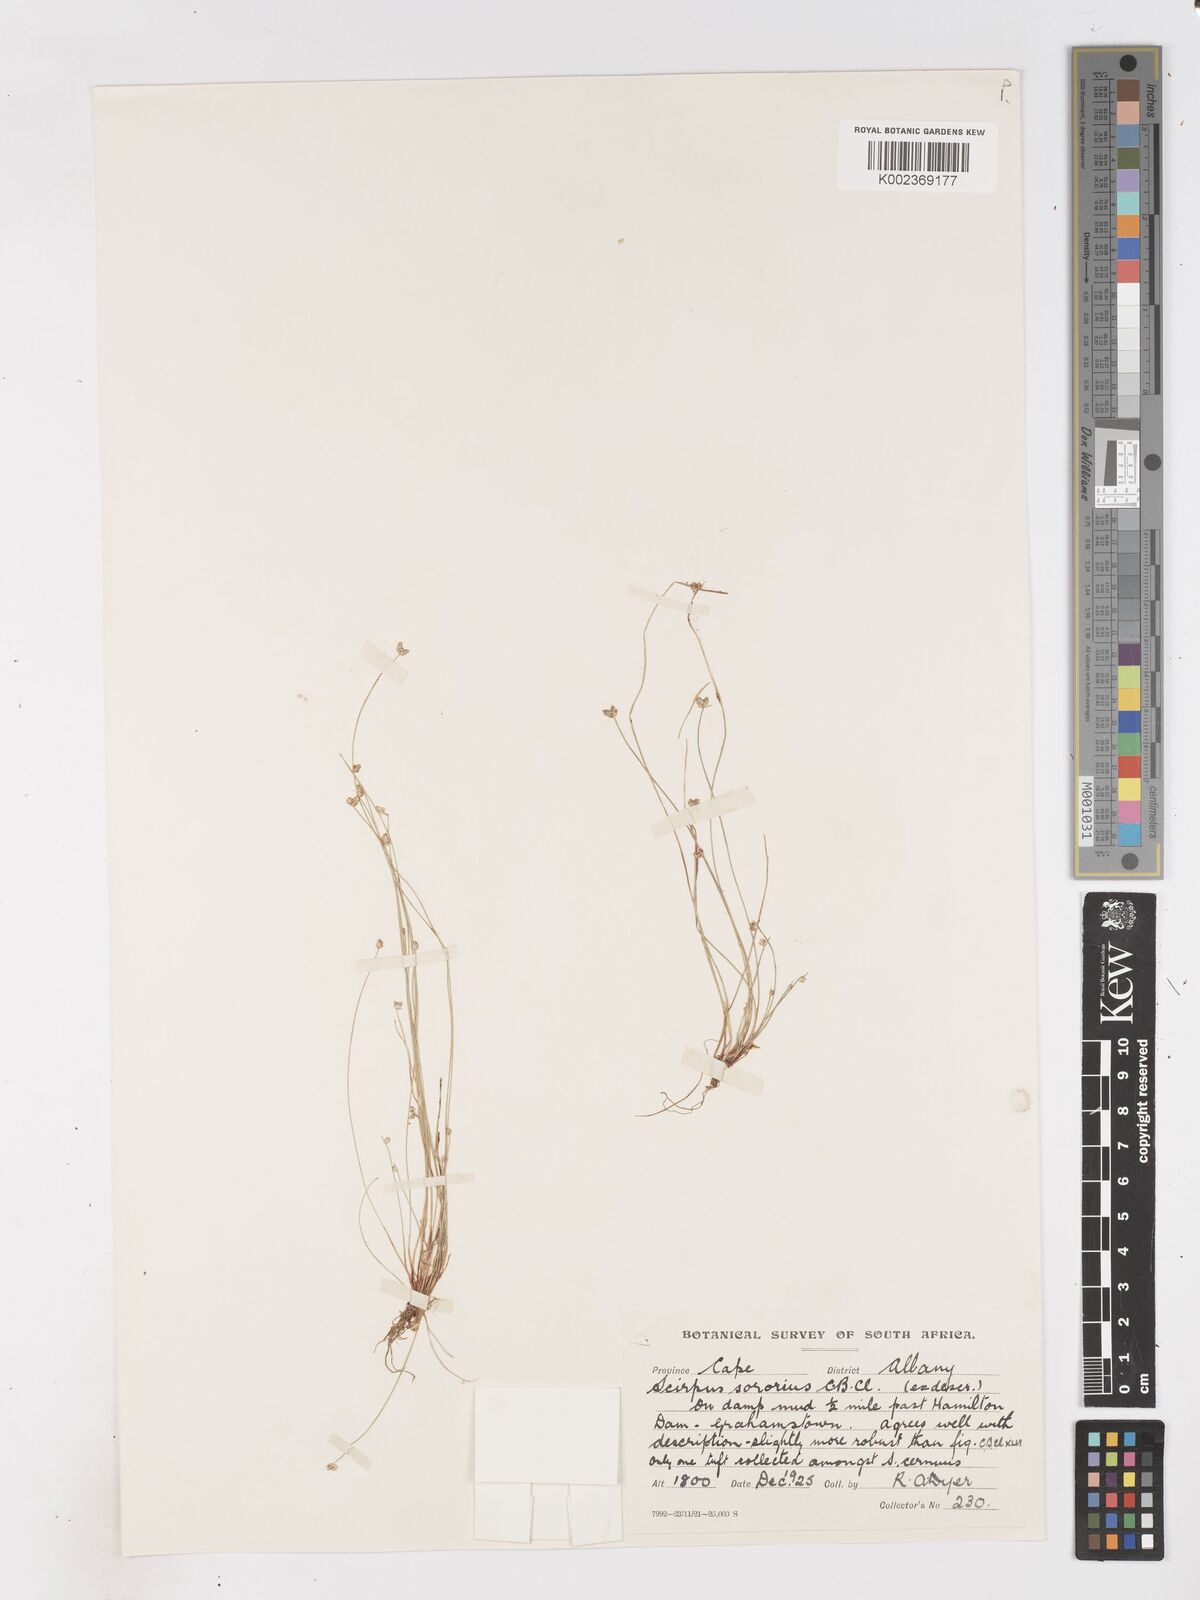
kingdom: Plantae
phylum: Tracheophyta
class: Liliopsida
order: Poales
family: Cyperaceae
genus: Isolepis
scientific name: Isolepis sororia
